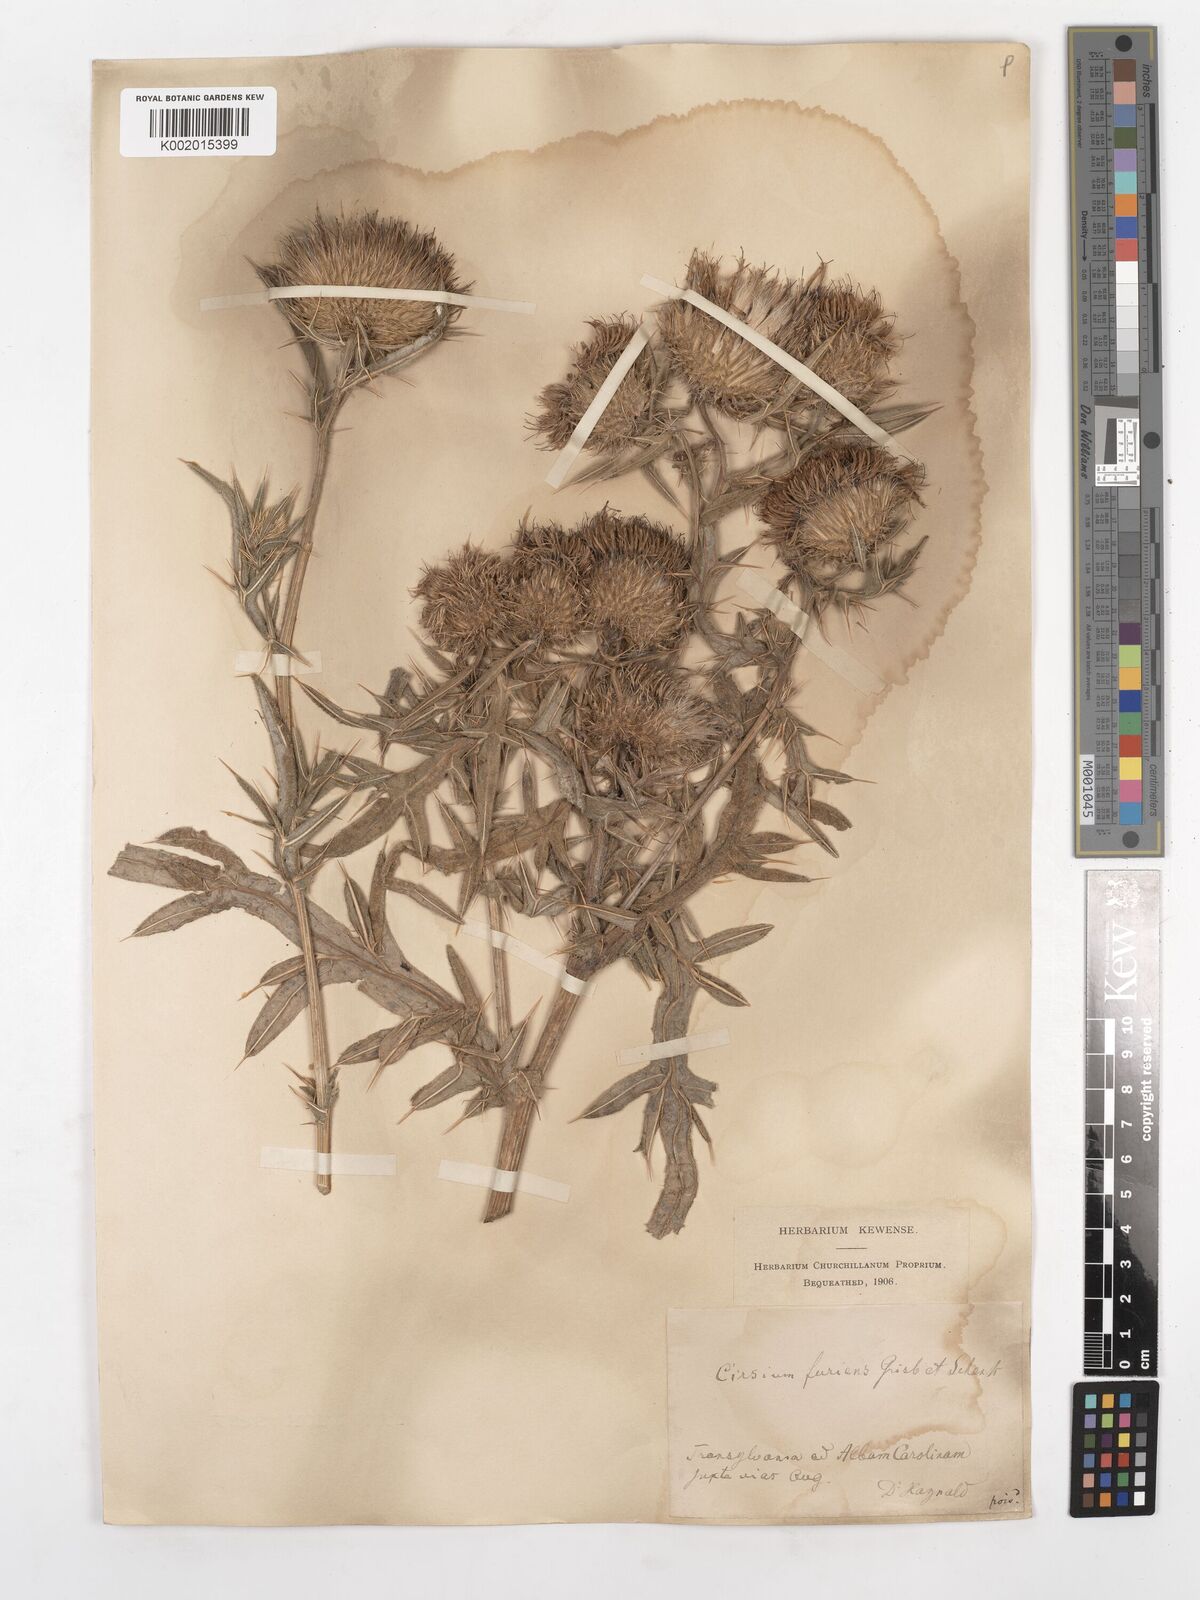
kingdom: Plantae
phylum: Tracheophyta
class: Magnoliopsida
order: Asterales
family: Asteraceae
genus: Lophiolepis
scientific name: Lophiolepis ciliata
